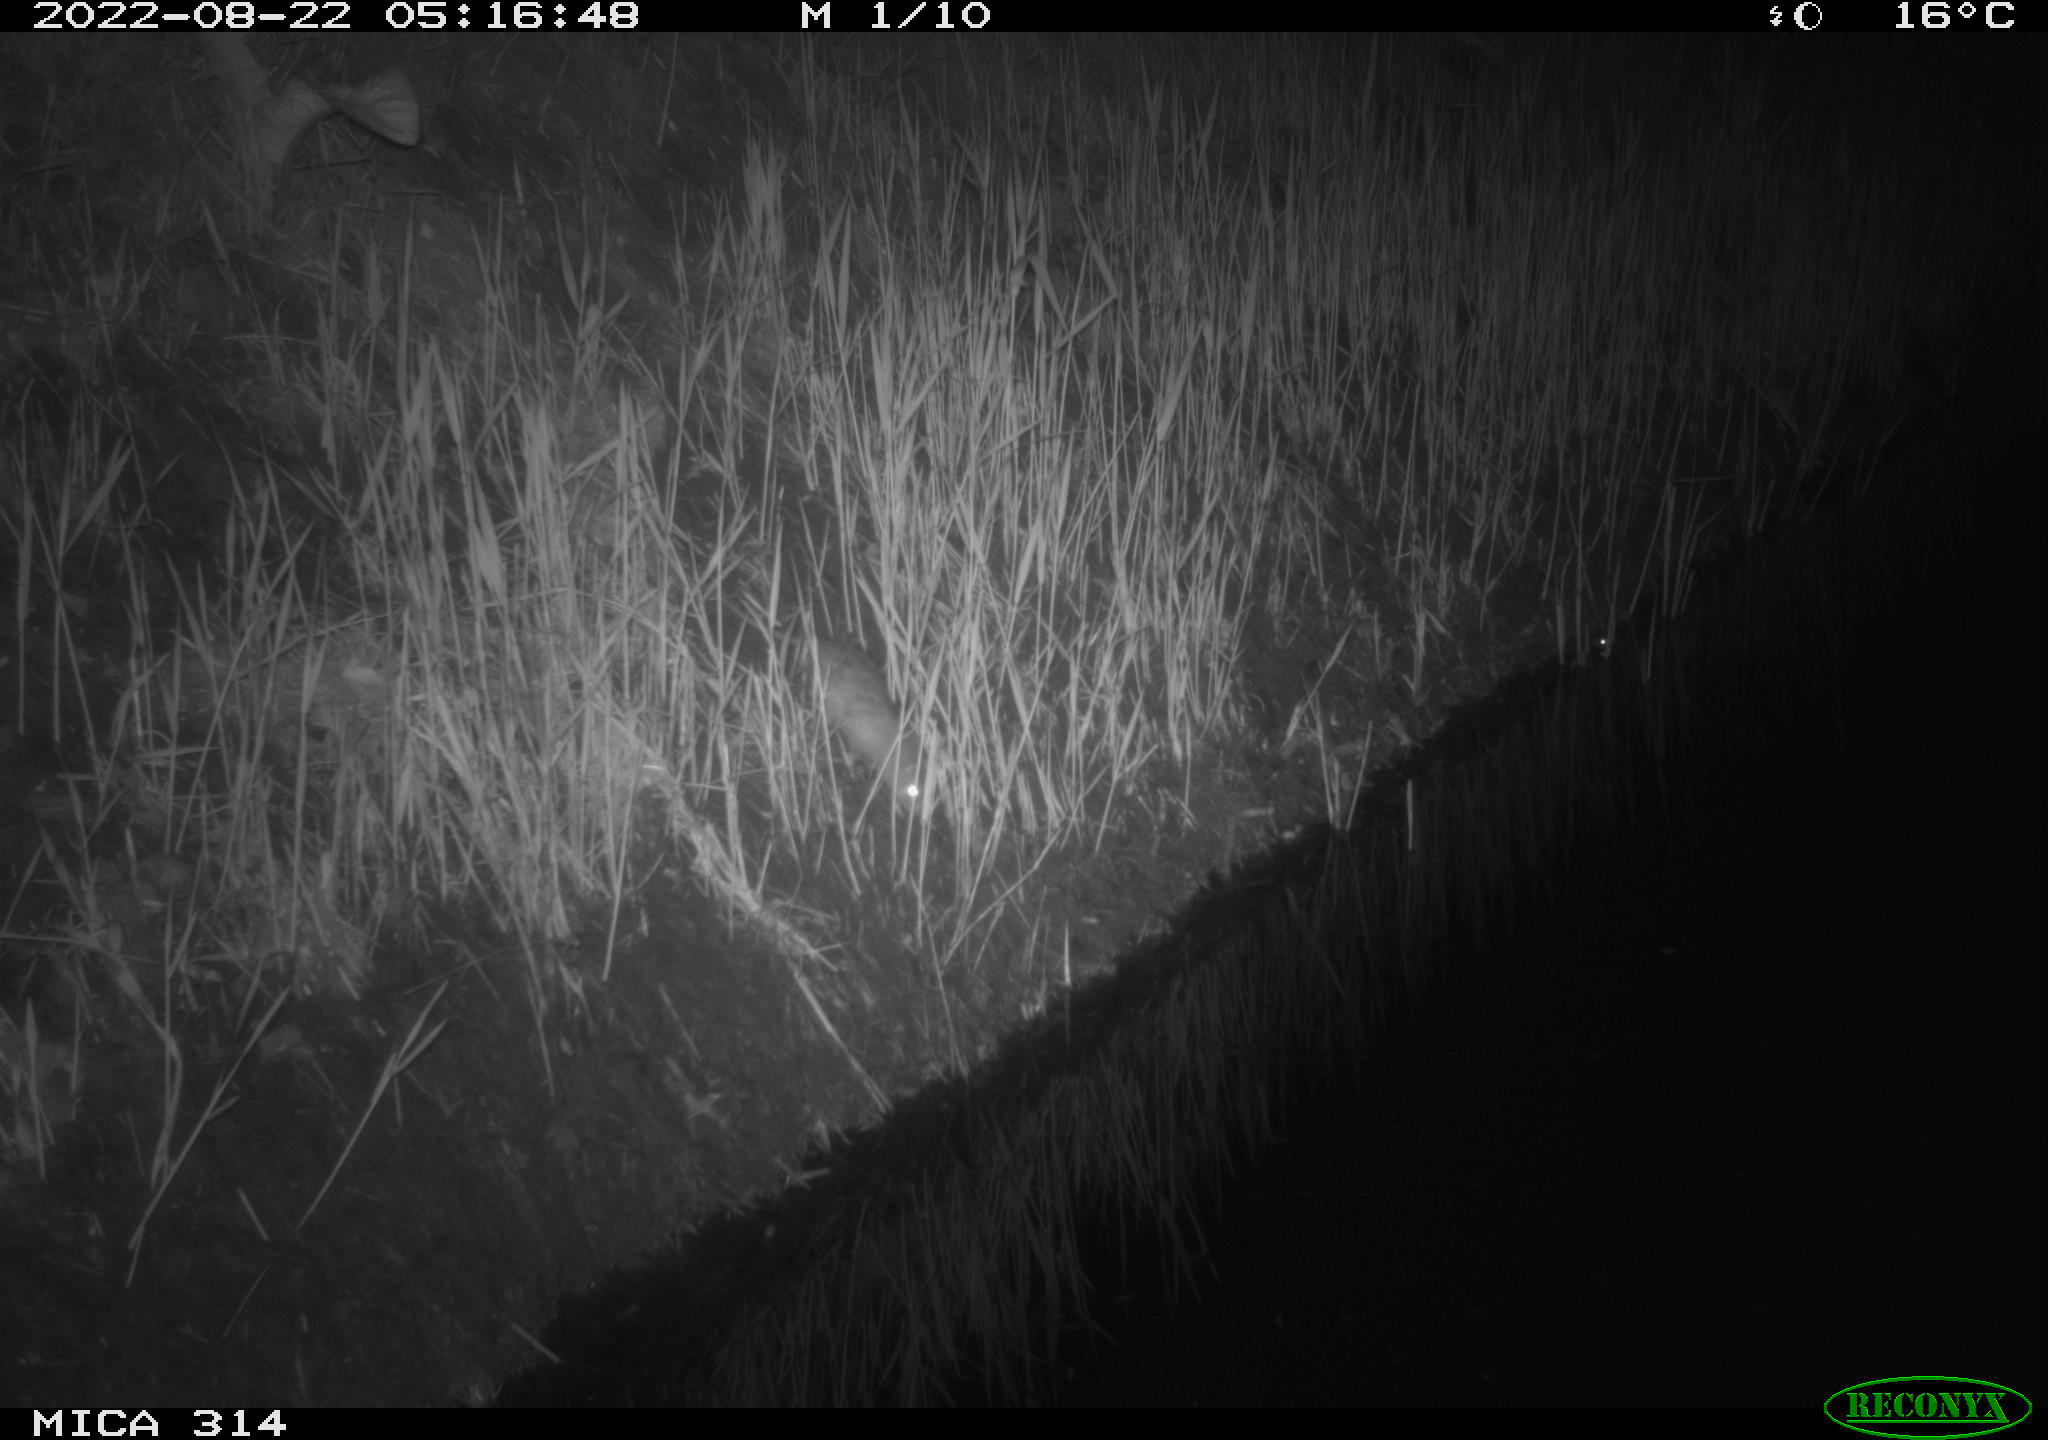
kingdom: Animalia
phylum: Chordata
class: Mammalia
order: Rodentia
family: Muridae
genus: Rattus
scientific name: Rattus norvegicus
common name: Brown rat
